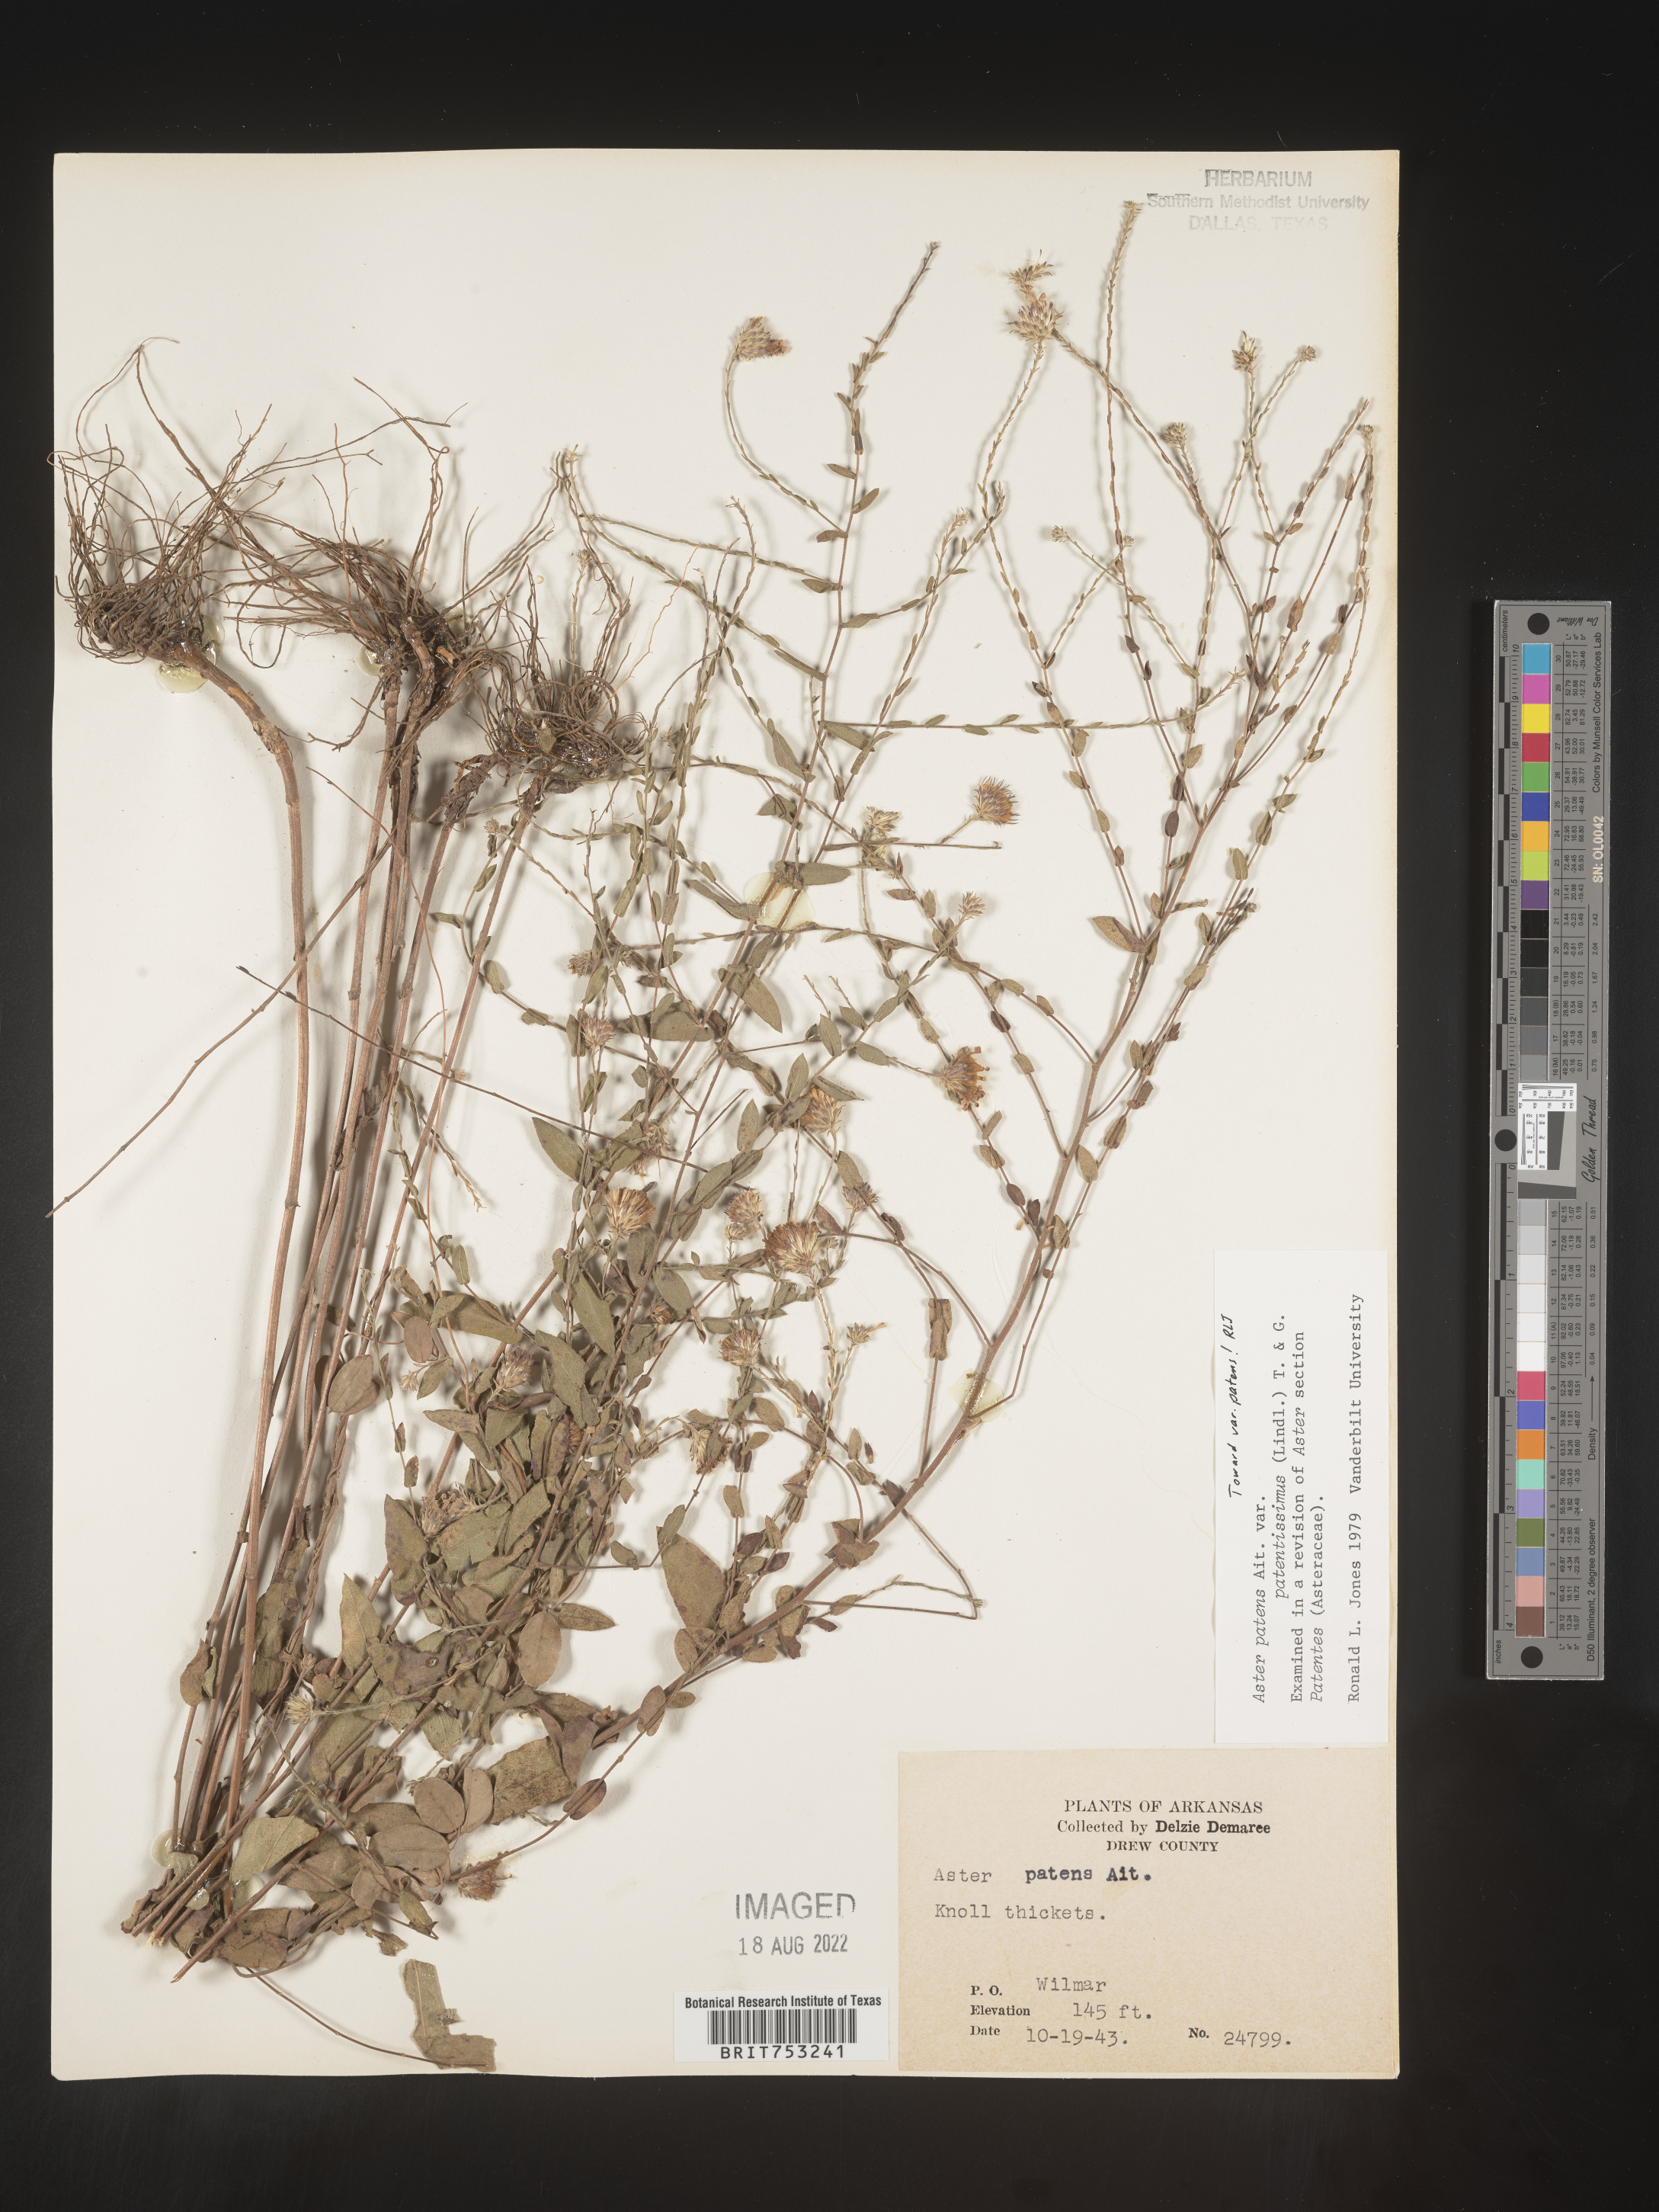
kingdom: Plantae
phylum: Tracheophyta
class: Magnoliopsida
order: Asterales
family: Asteraceae
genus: Symphyotrichum
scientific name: Symphyotrichum patens
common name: Late purple aster
